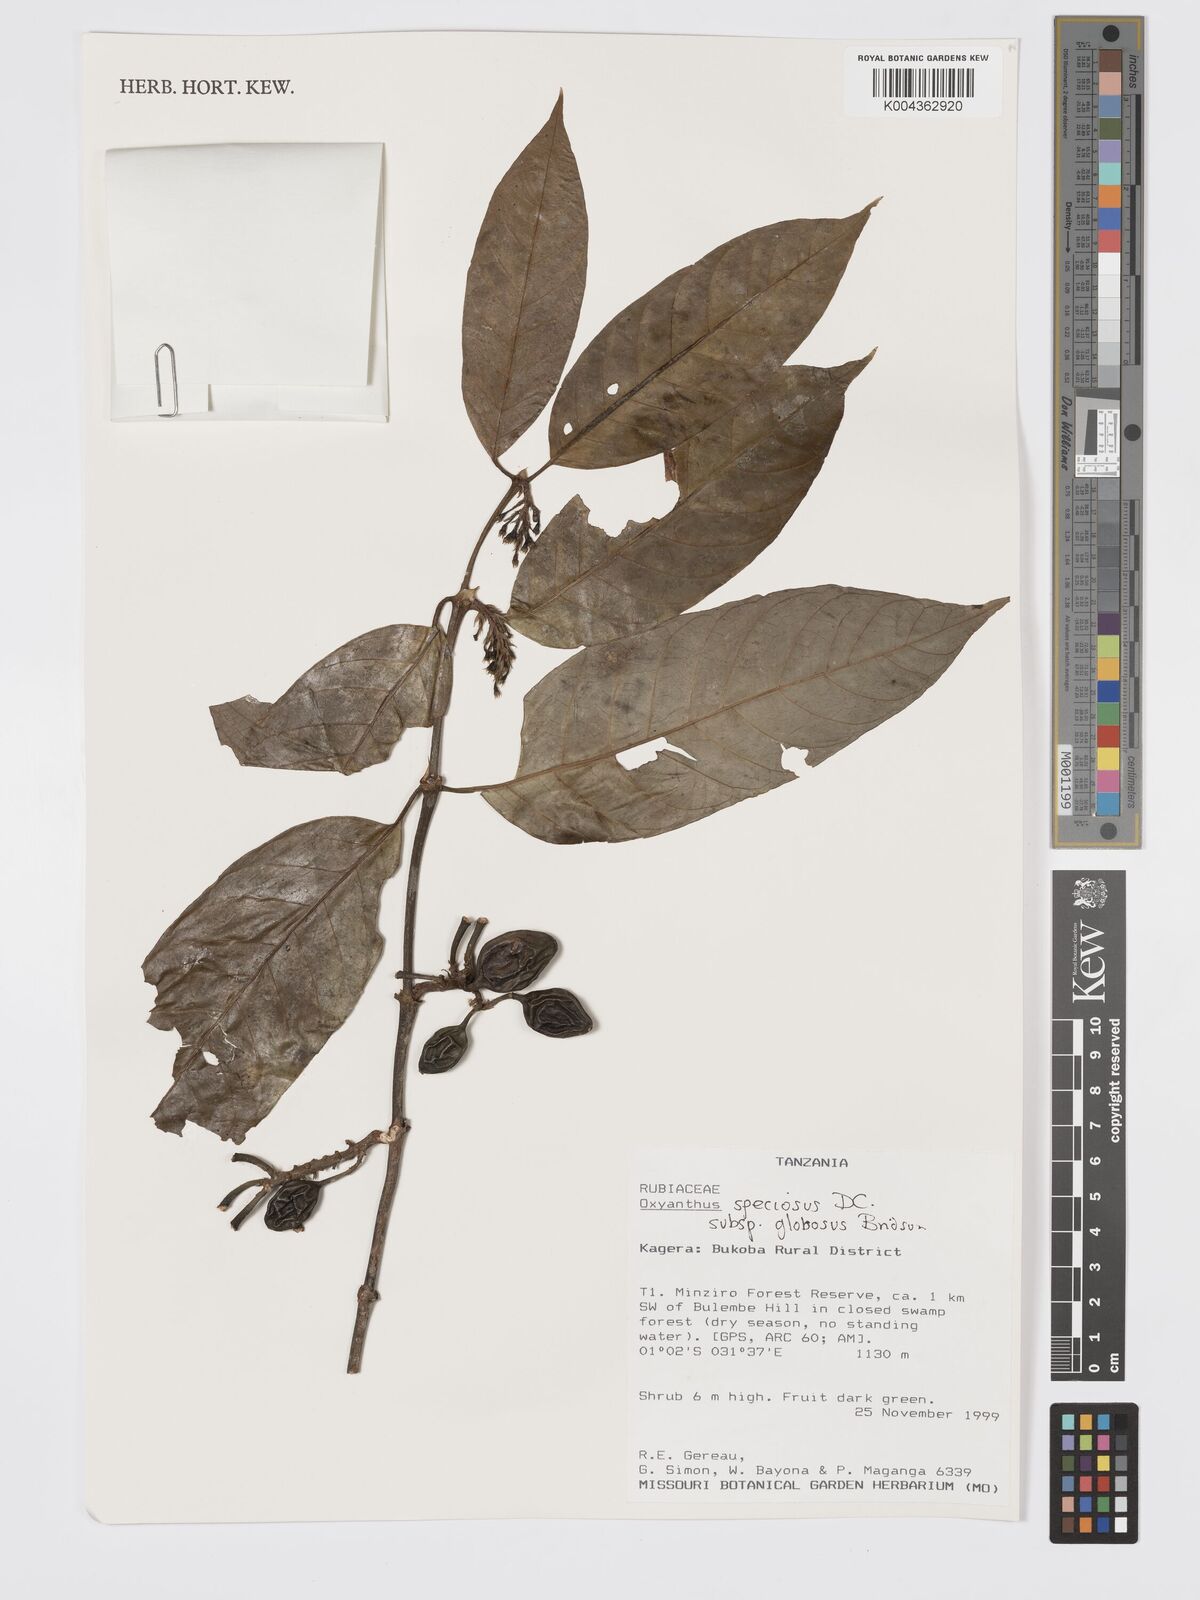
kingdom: Plantae
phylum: Tracheophyta
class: Magnoliopsida
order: Gentianales
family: Rubiaceae
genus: Oxyanthus
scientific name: Oxyanthus speciosus
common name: Whipstick loquat
